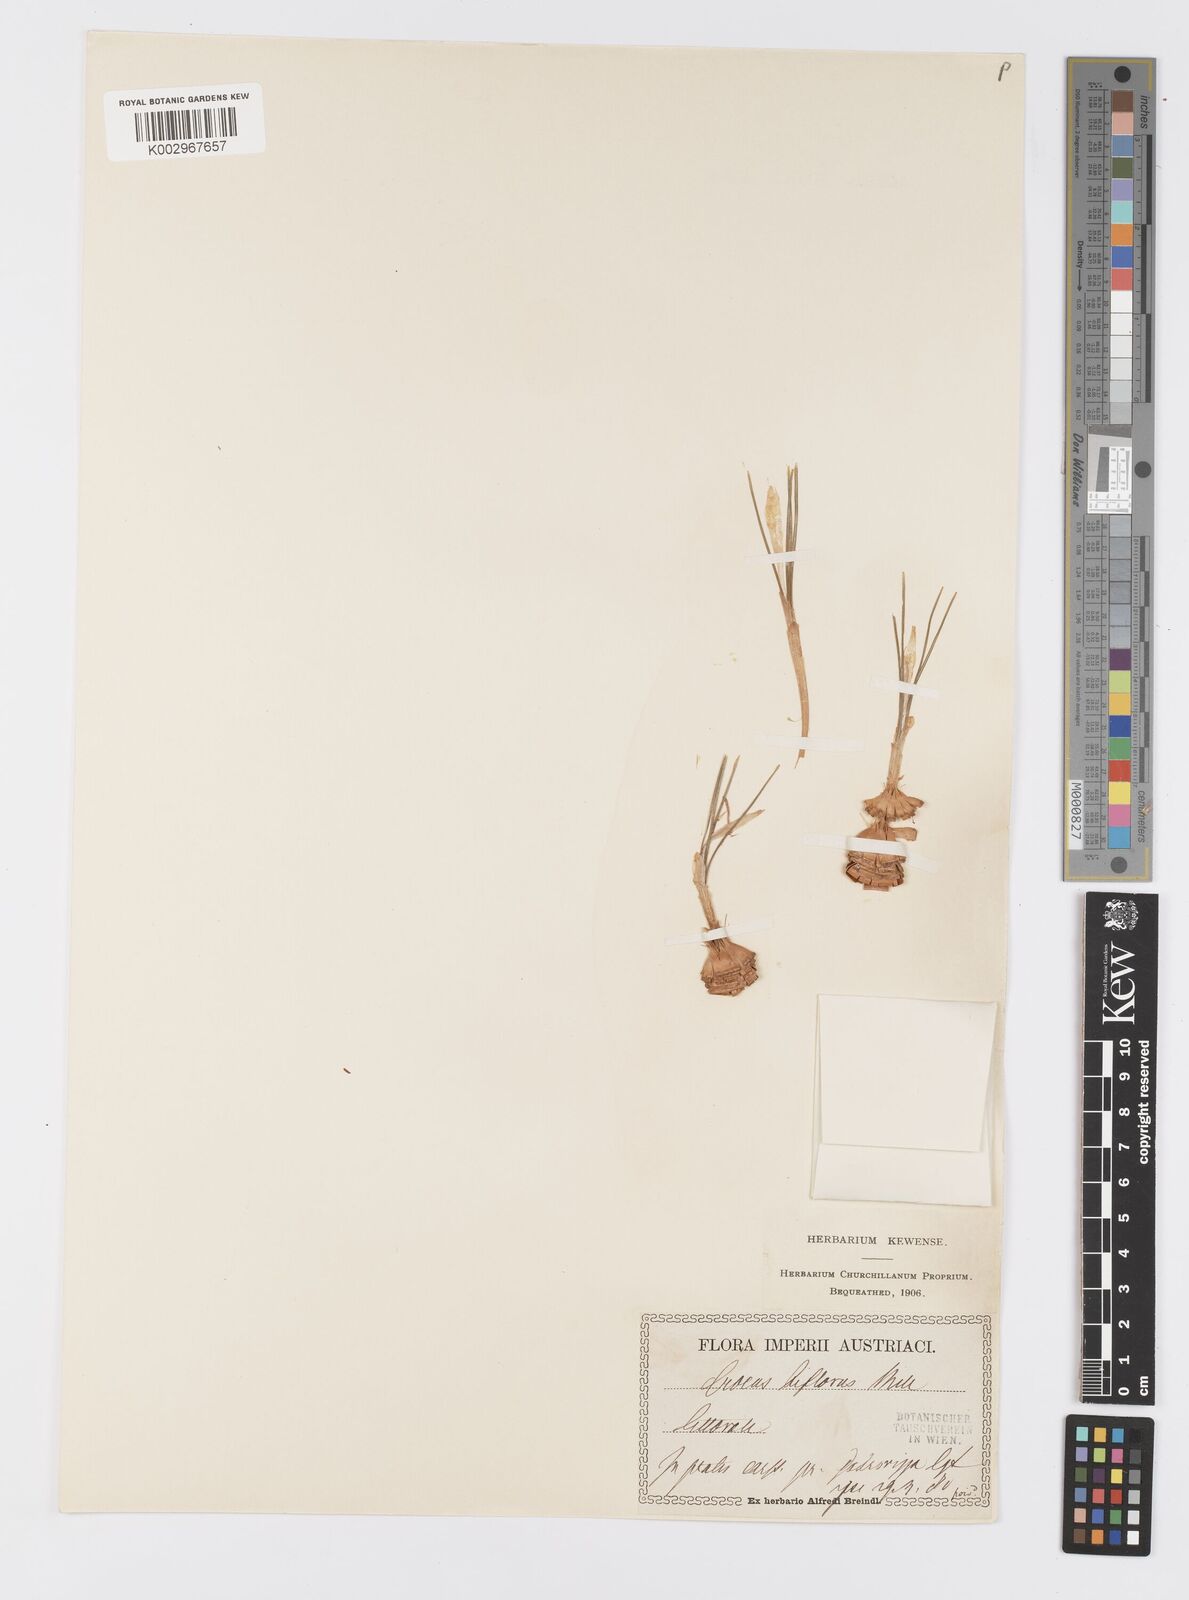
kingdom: Plantae
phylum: Tracheophyta
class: Liliopsida
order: Asparagales
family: Iridaceae
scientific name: Iridaceae
